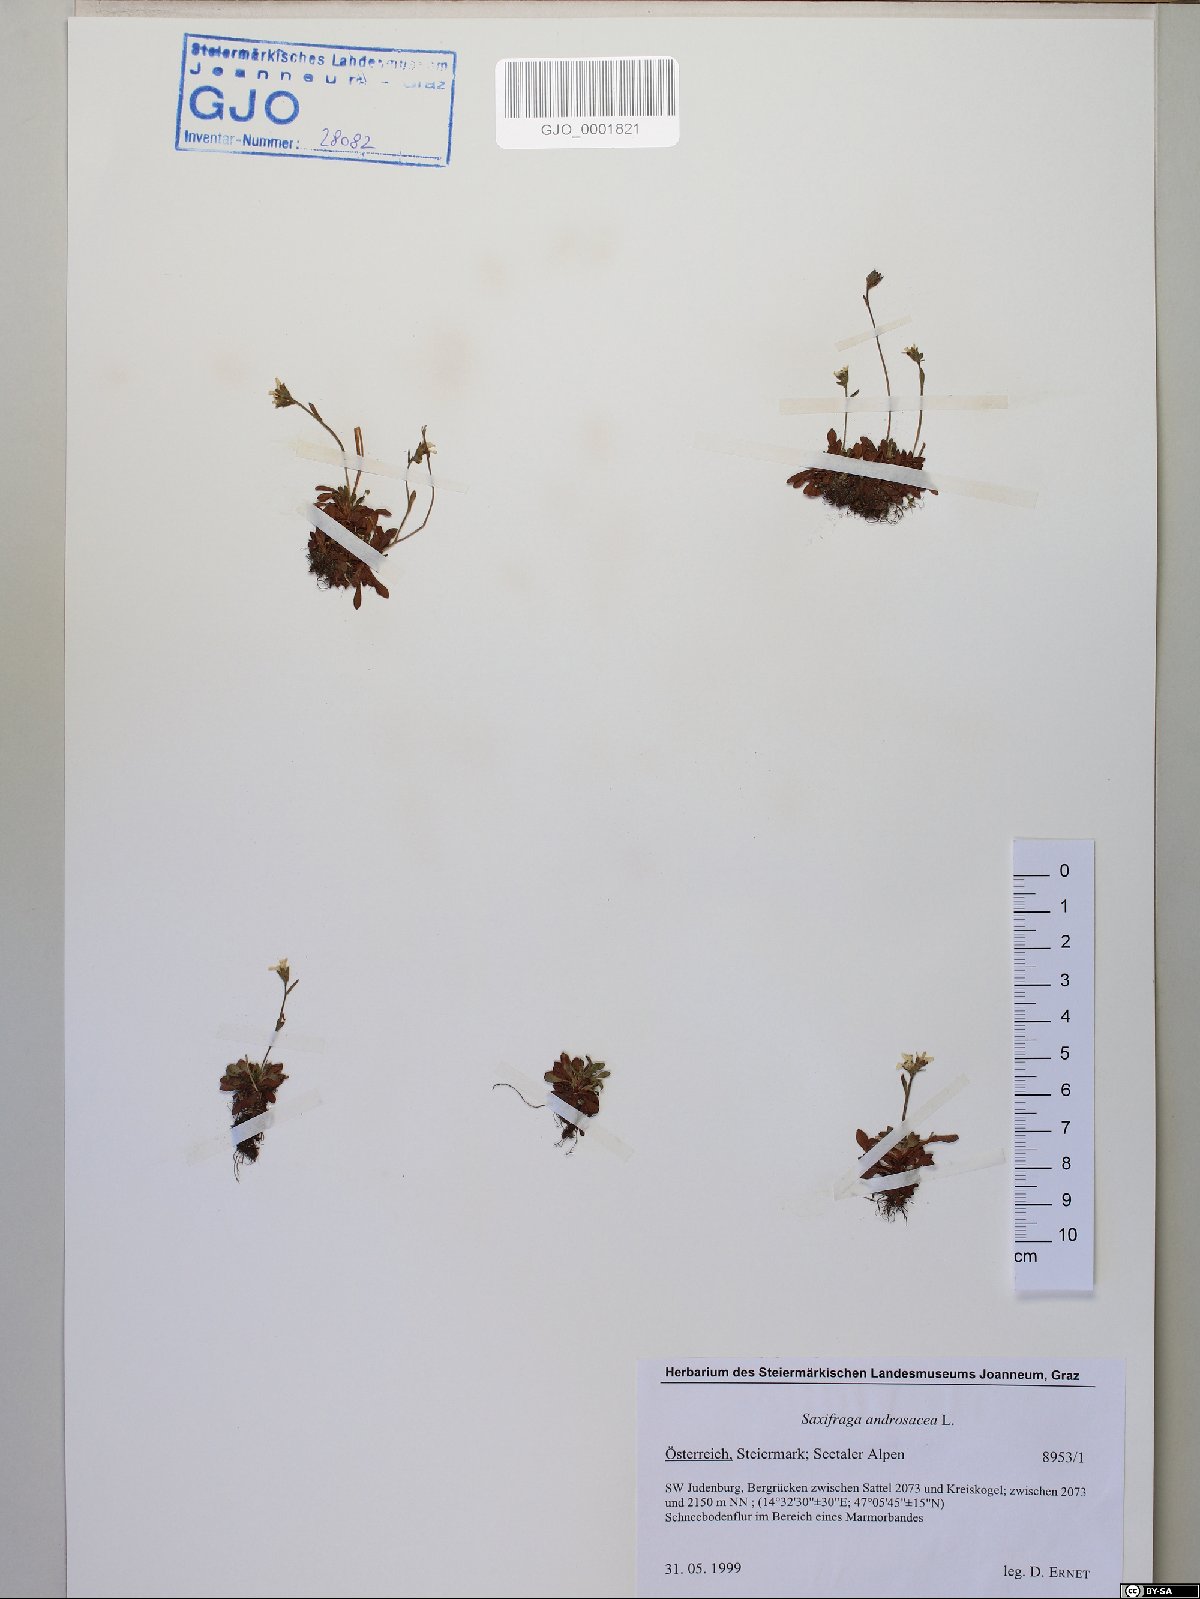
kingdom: Plantae
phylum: Tracheophyta
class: Magnoliopsida
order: Saxifragales
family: Saxifragaceae
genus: Saxifraga
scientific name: Saxifraga androsacea
